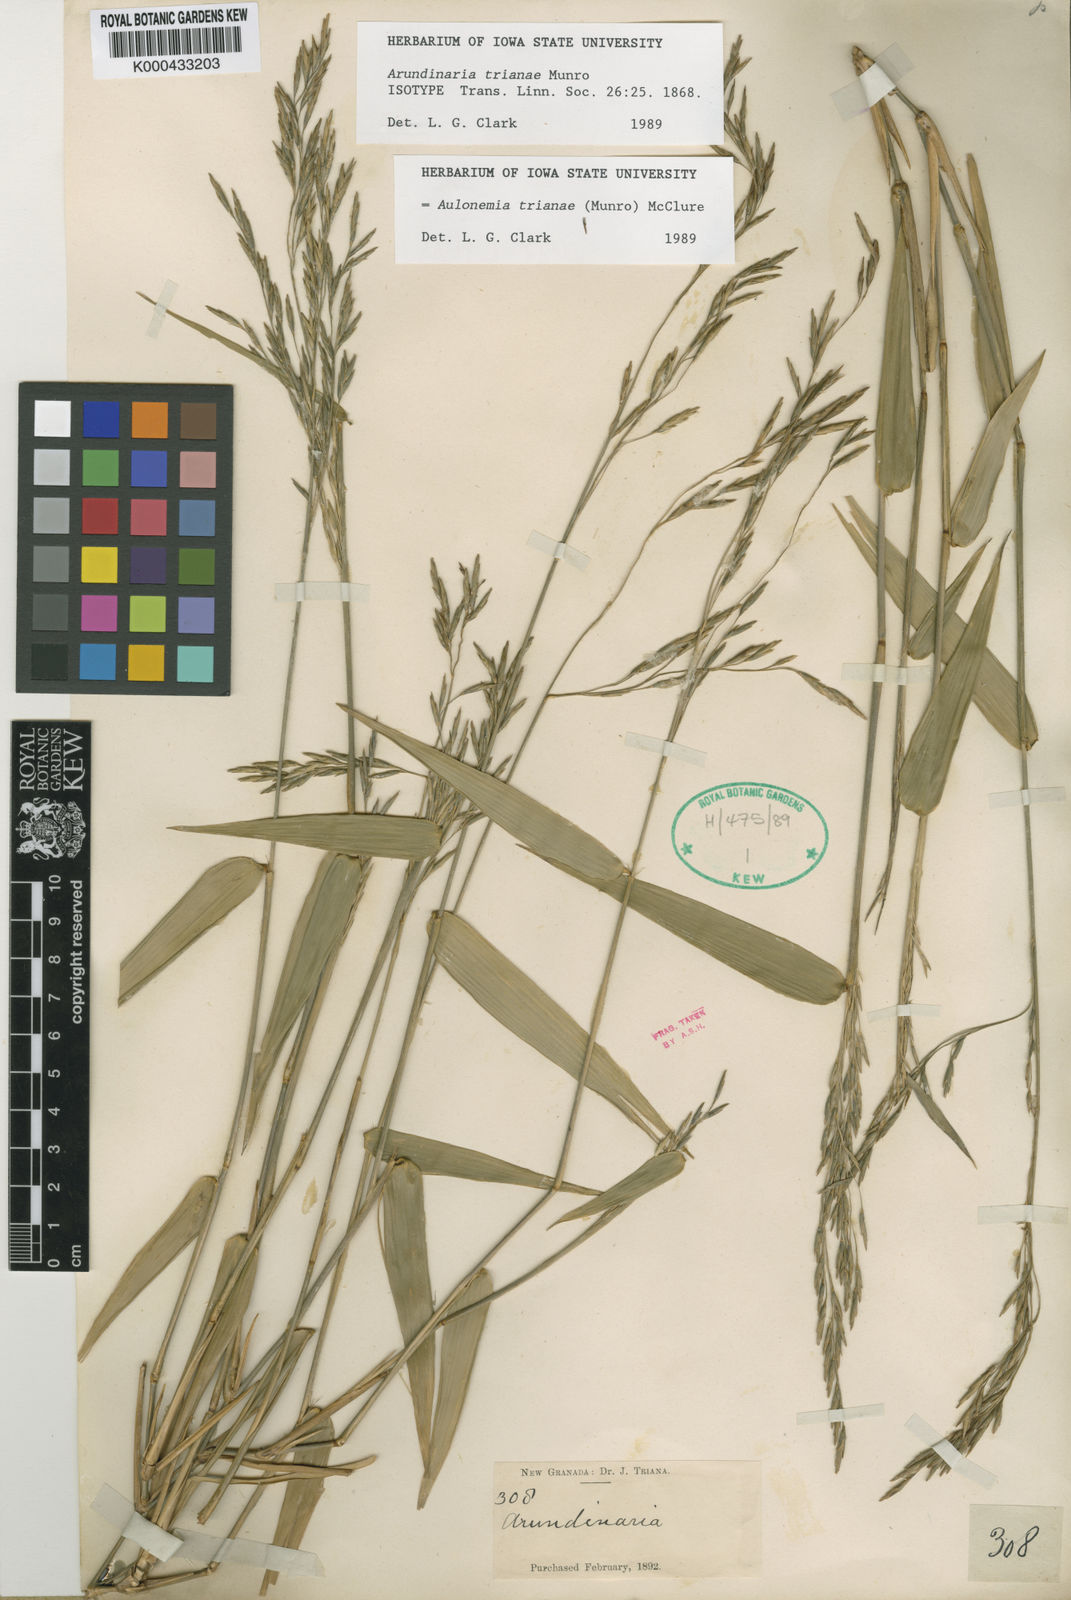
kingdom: Plantae
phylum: Tracheophyta
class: Liliopsida
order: Poales
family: Poaceae
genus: Aulonemia
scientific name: Aulonemia trianae
